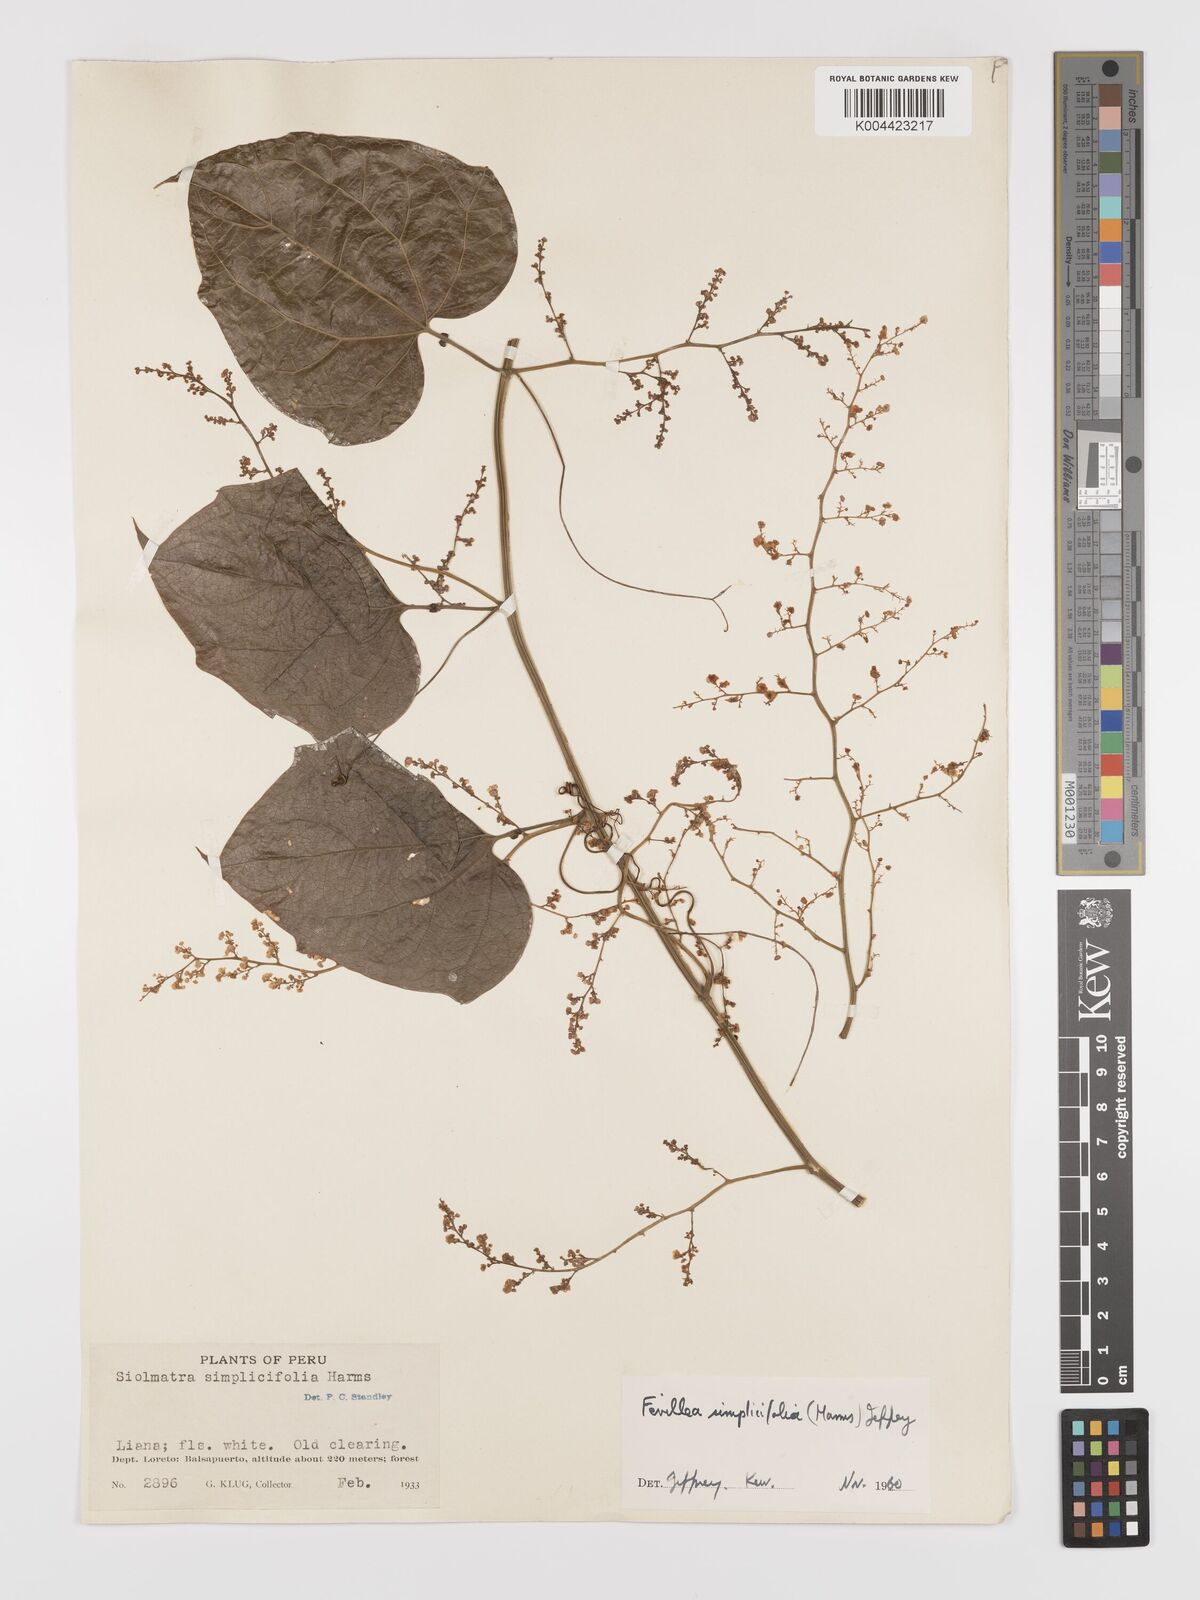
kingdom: Plantae
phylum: Tracheophyta
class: Magnoliopsida
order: Cucurbitales
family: Cucurbitaceae
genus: Fevillea
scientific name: Fevillea pedatifolia
